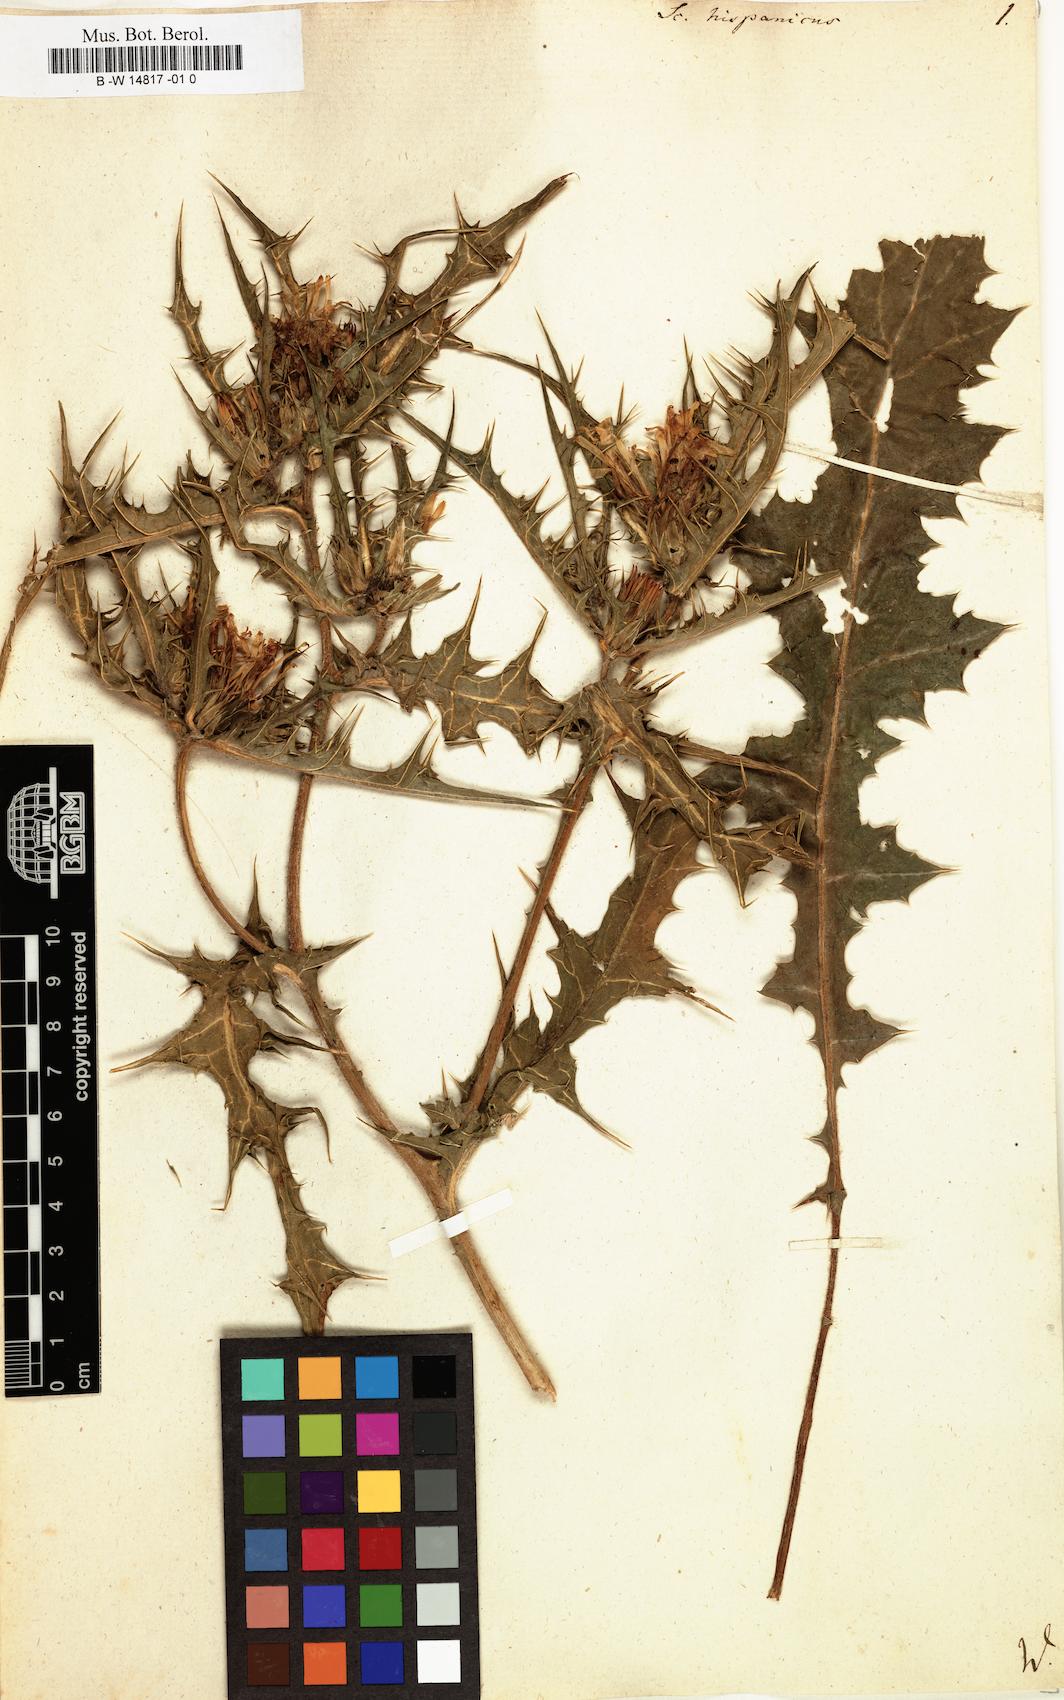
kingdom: Plantae
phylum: Tracheophyta
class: Magnoliopsida
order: Asterales
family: Asteraceae
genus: Scolymus
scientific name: Scolymus hispanicus
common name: Golden thistle
